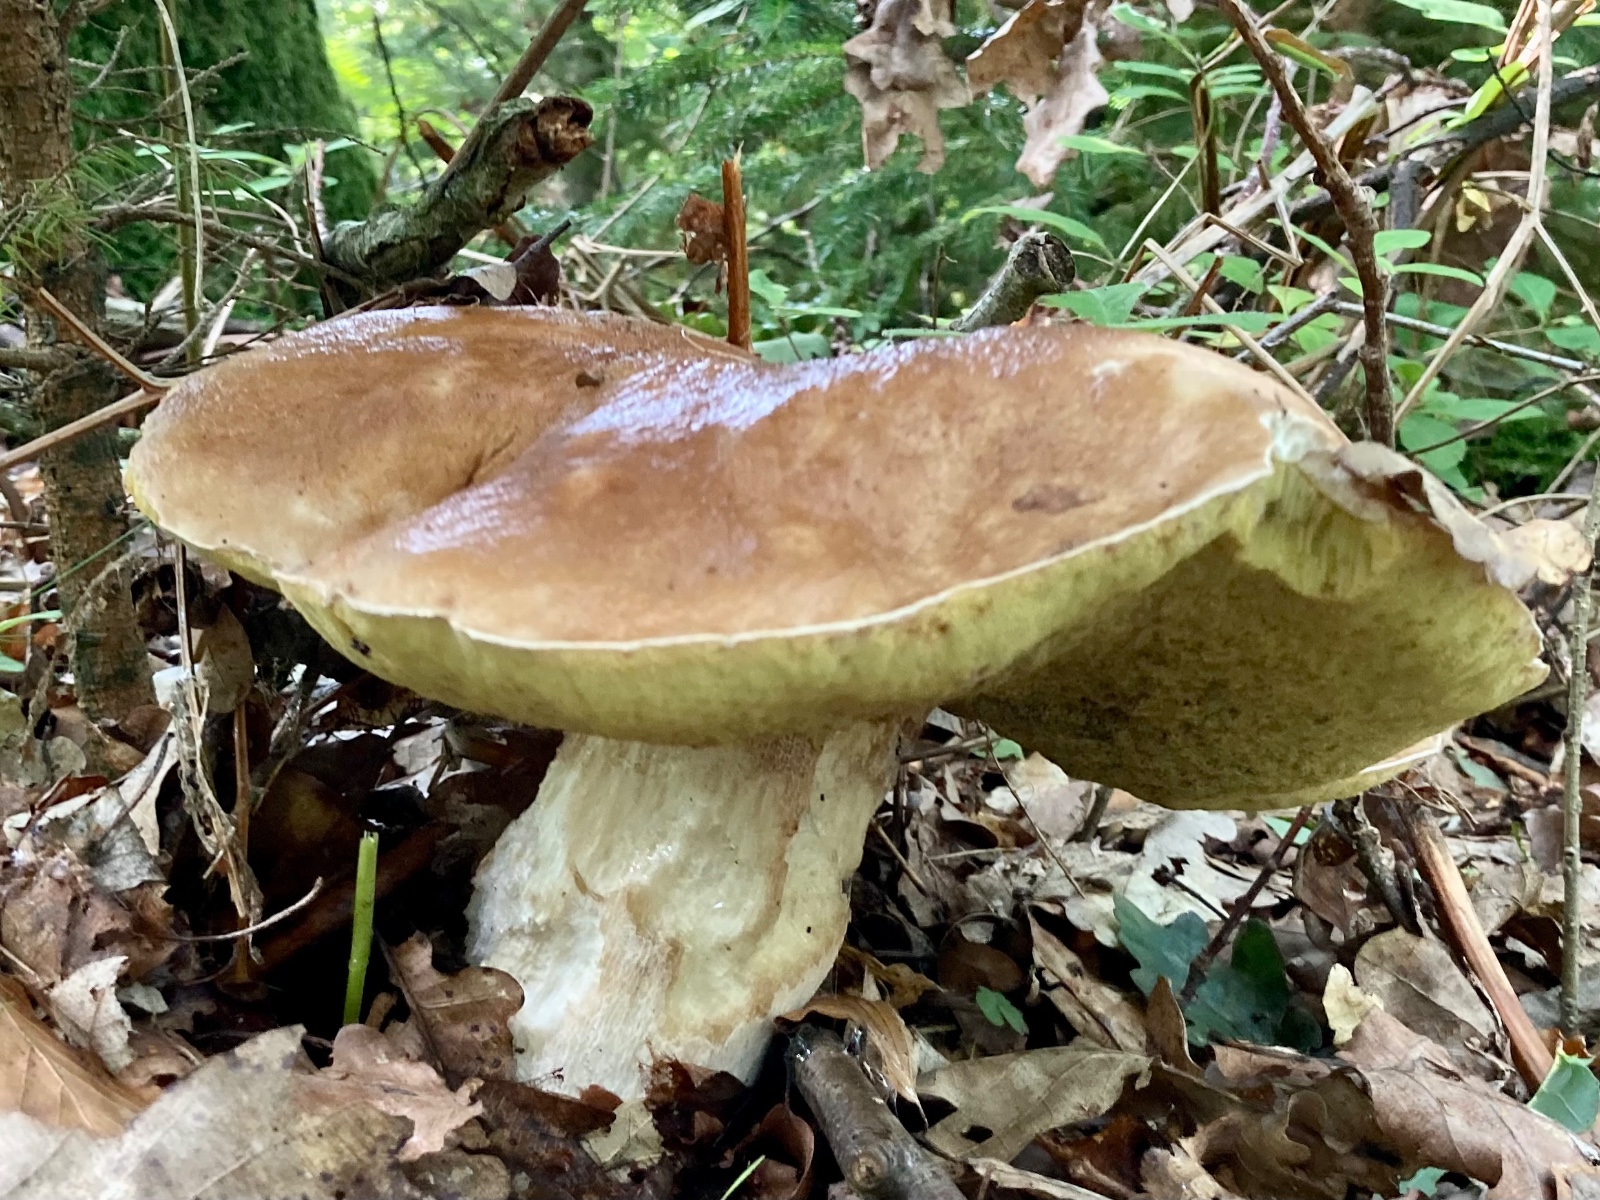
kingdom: Fungi
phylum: Basidiomycota
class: Agaricomycetes
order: Boletales
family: Boletaceae
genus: Boletus
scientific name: Boletus edulis
